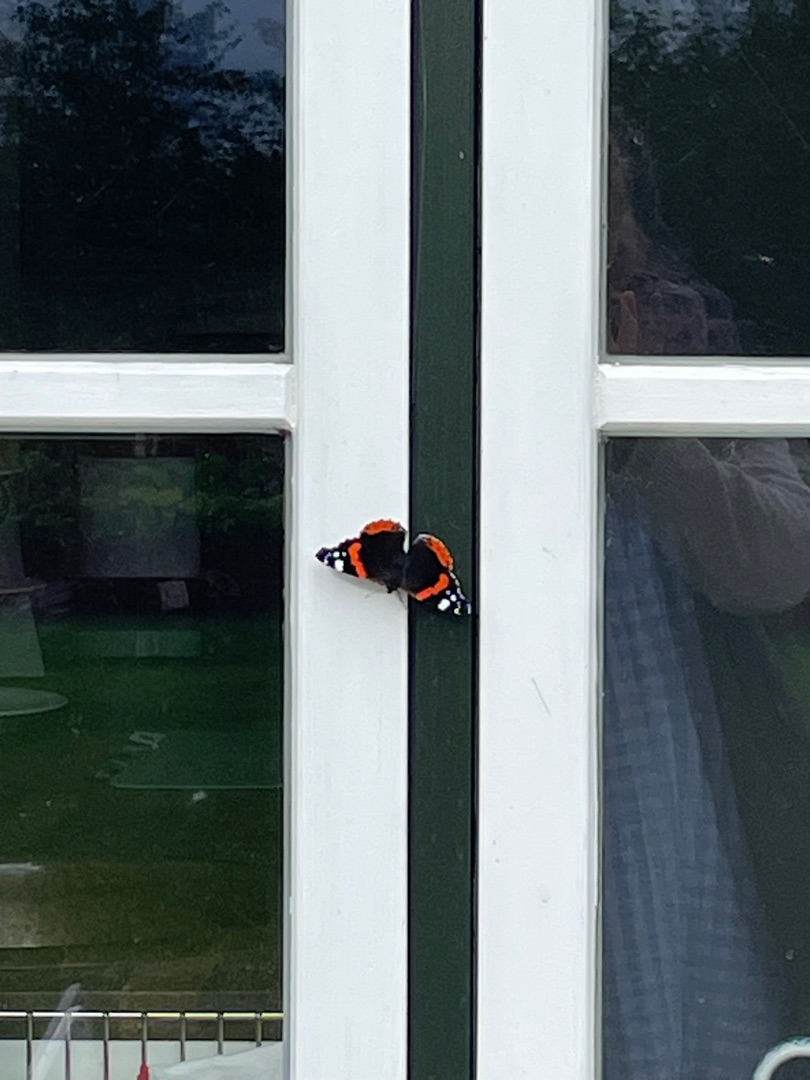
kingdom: Animalia
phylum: Arthropoda
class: Insecta
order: Lepidoptera
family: Nymphalidae
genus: Vanessa
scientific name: Vanessa atalanta
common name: Admiral
